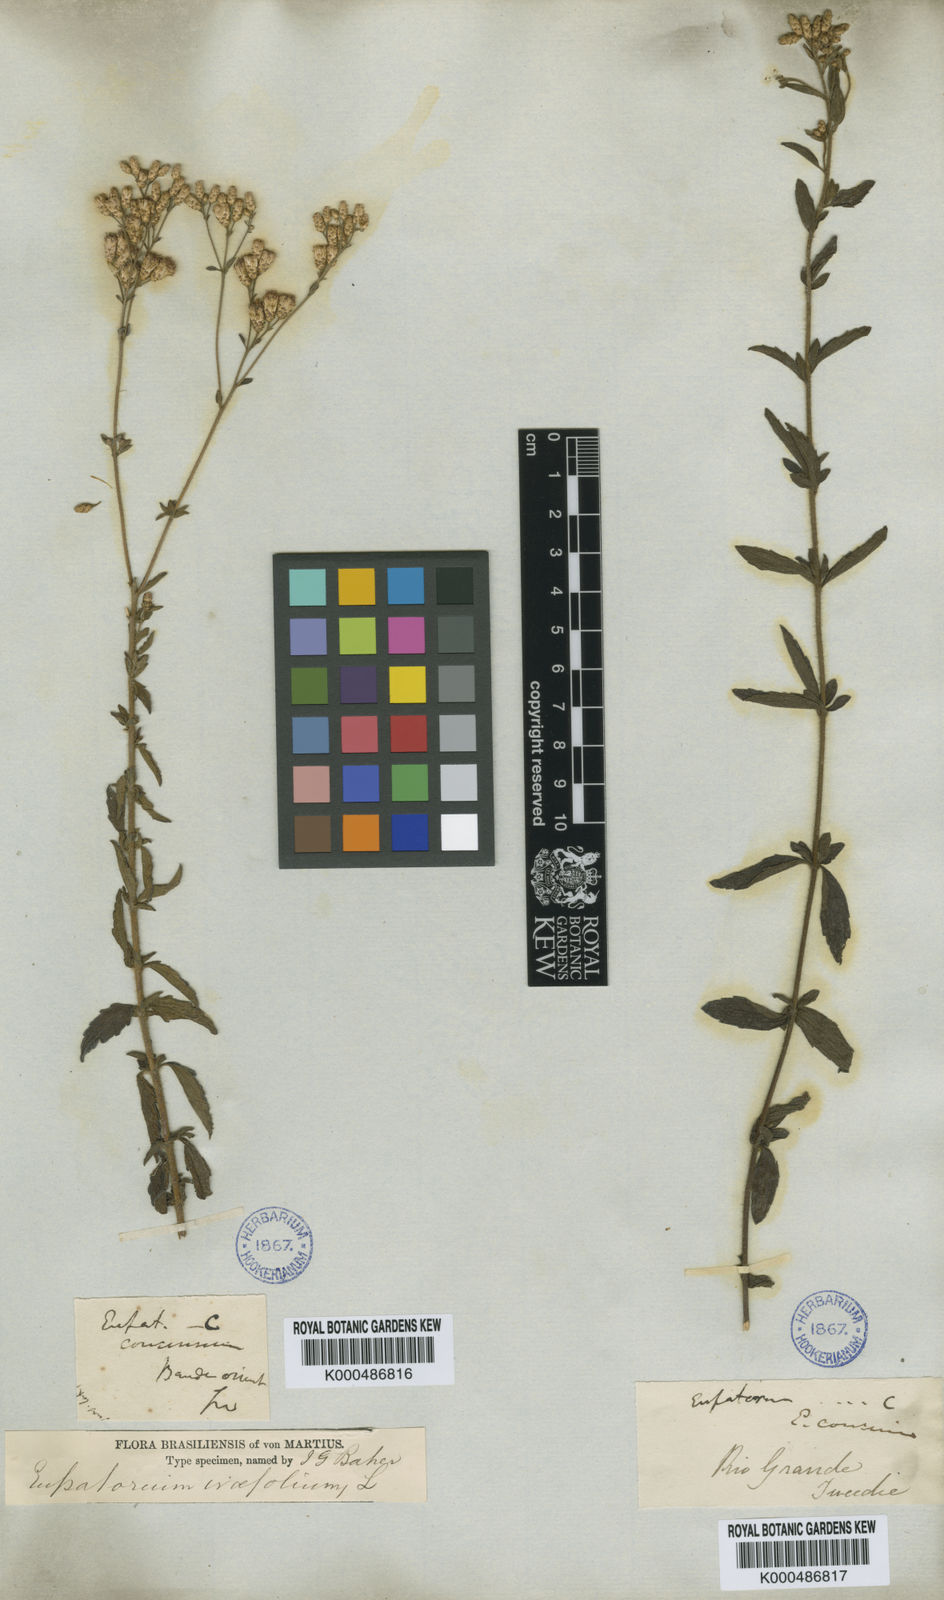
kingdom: Plantae
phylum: Tracheophyta
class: Magnoliopsida
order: Asterales
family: Asteraceae
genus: Chromolaena
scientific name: Chromolaena ivifolia
